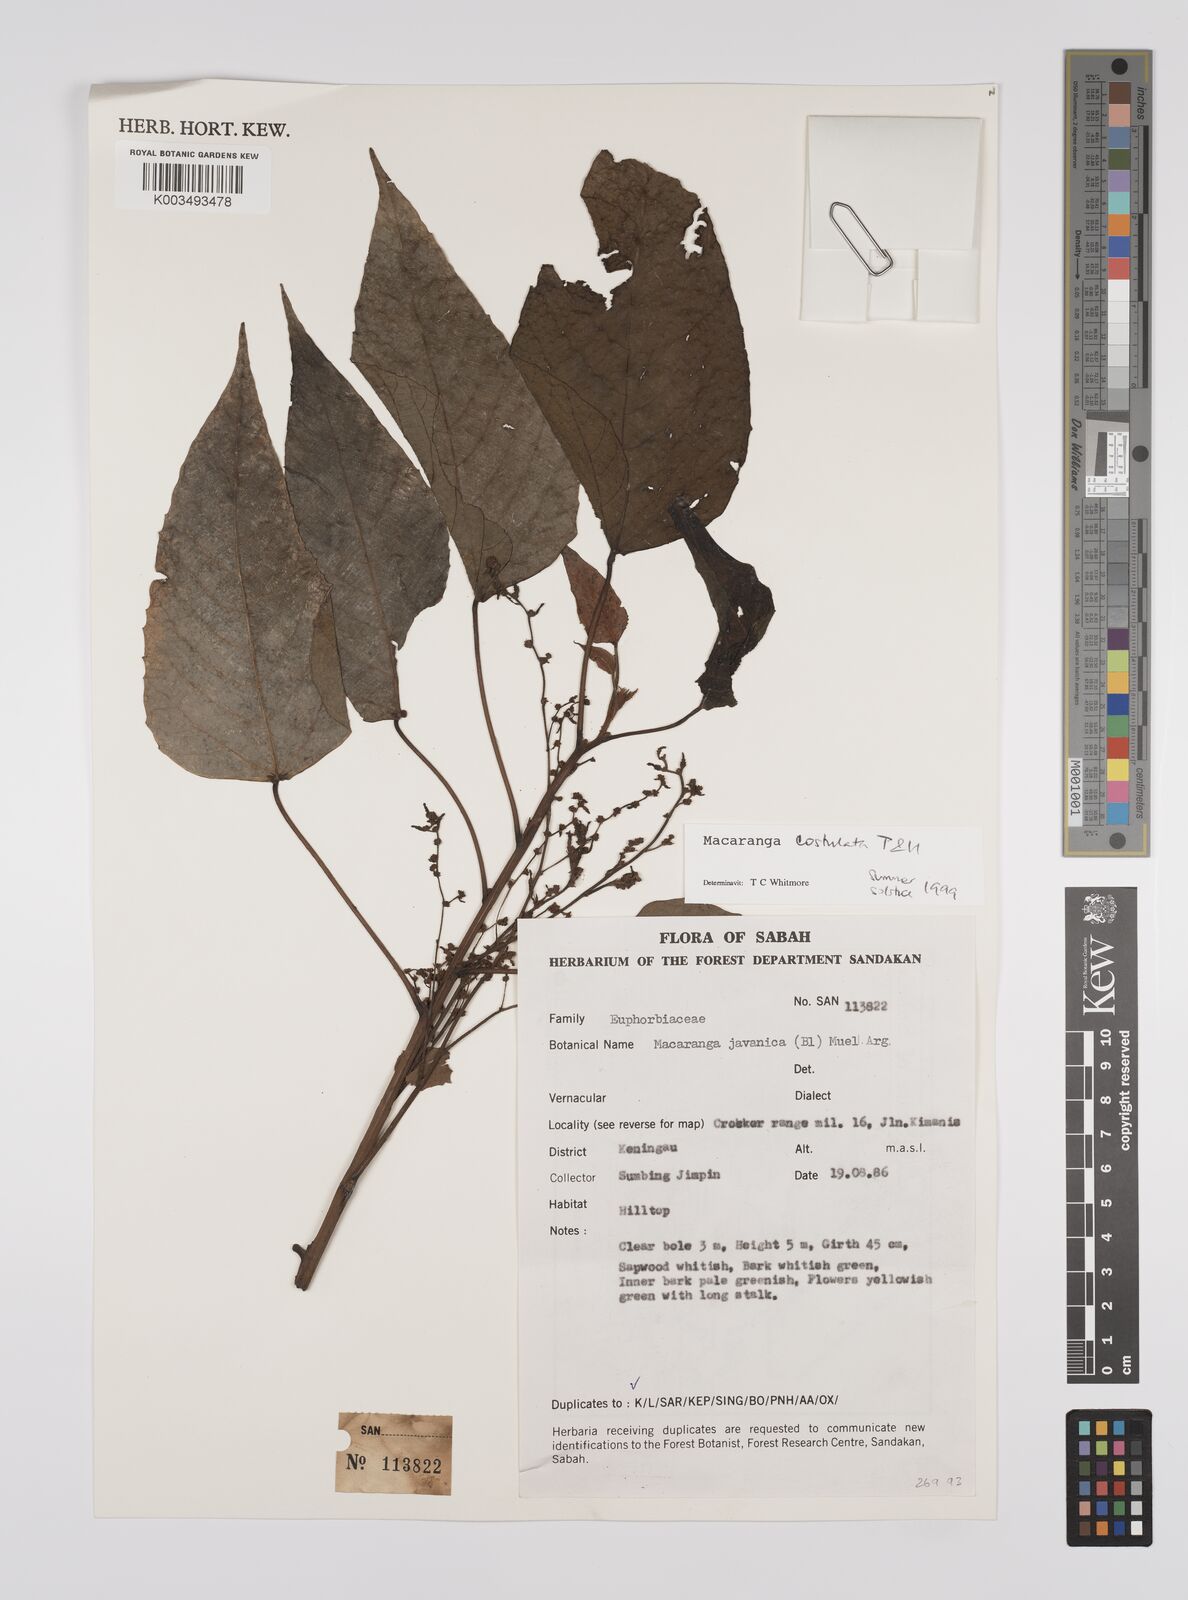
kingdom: Plantae
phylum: Tracheophyta
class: Magnoliopsida
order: Malpighiales
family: Euphorbiaceae
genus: Macaranga
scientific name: Macaranga costulata
